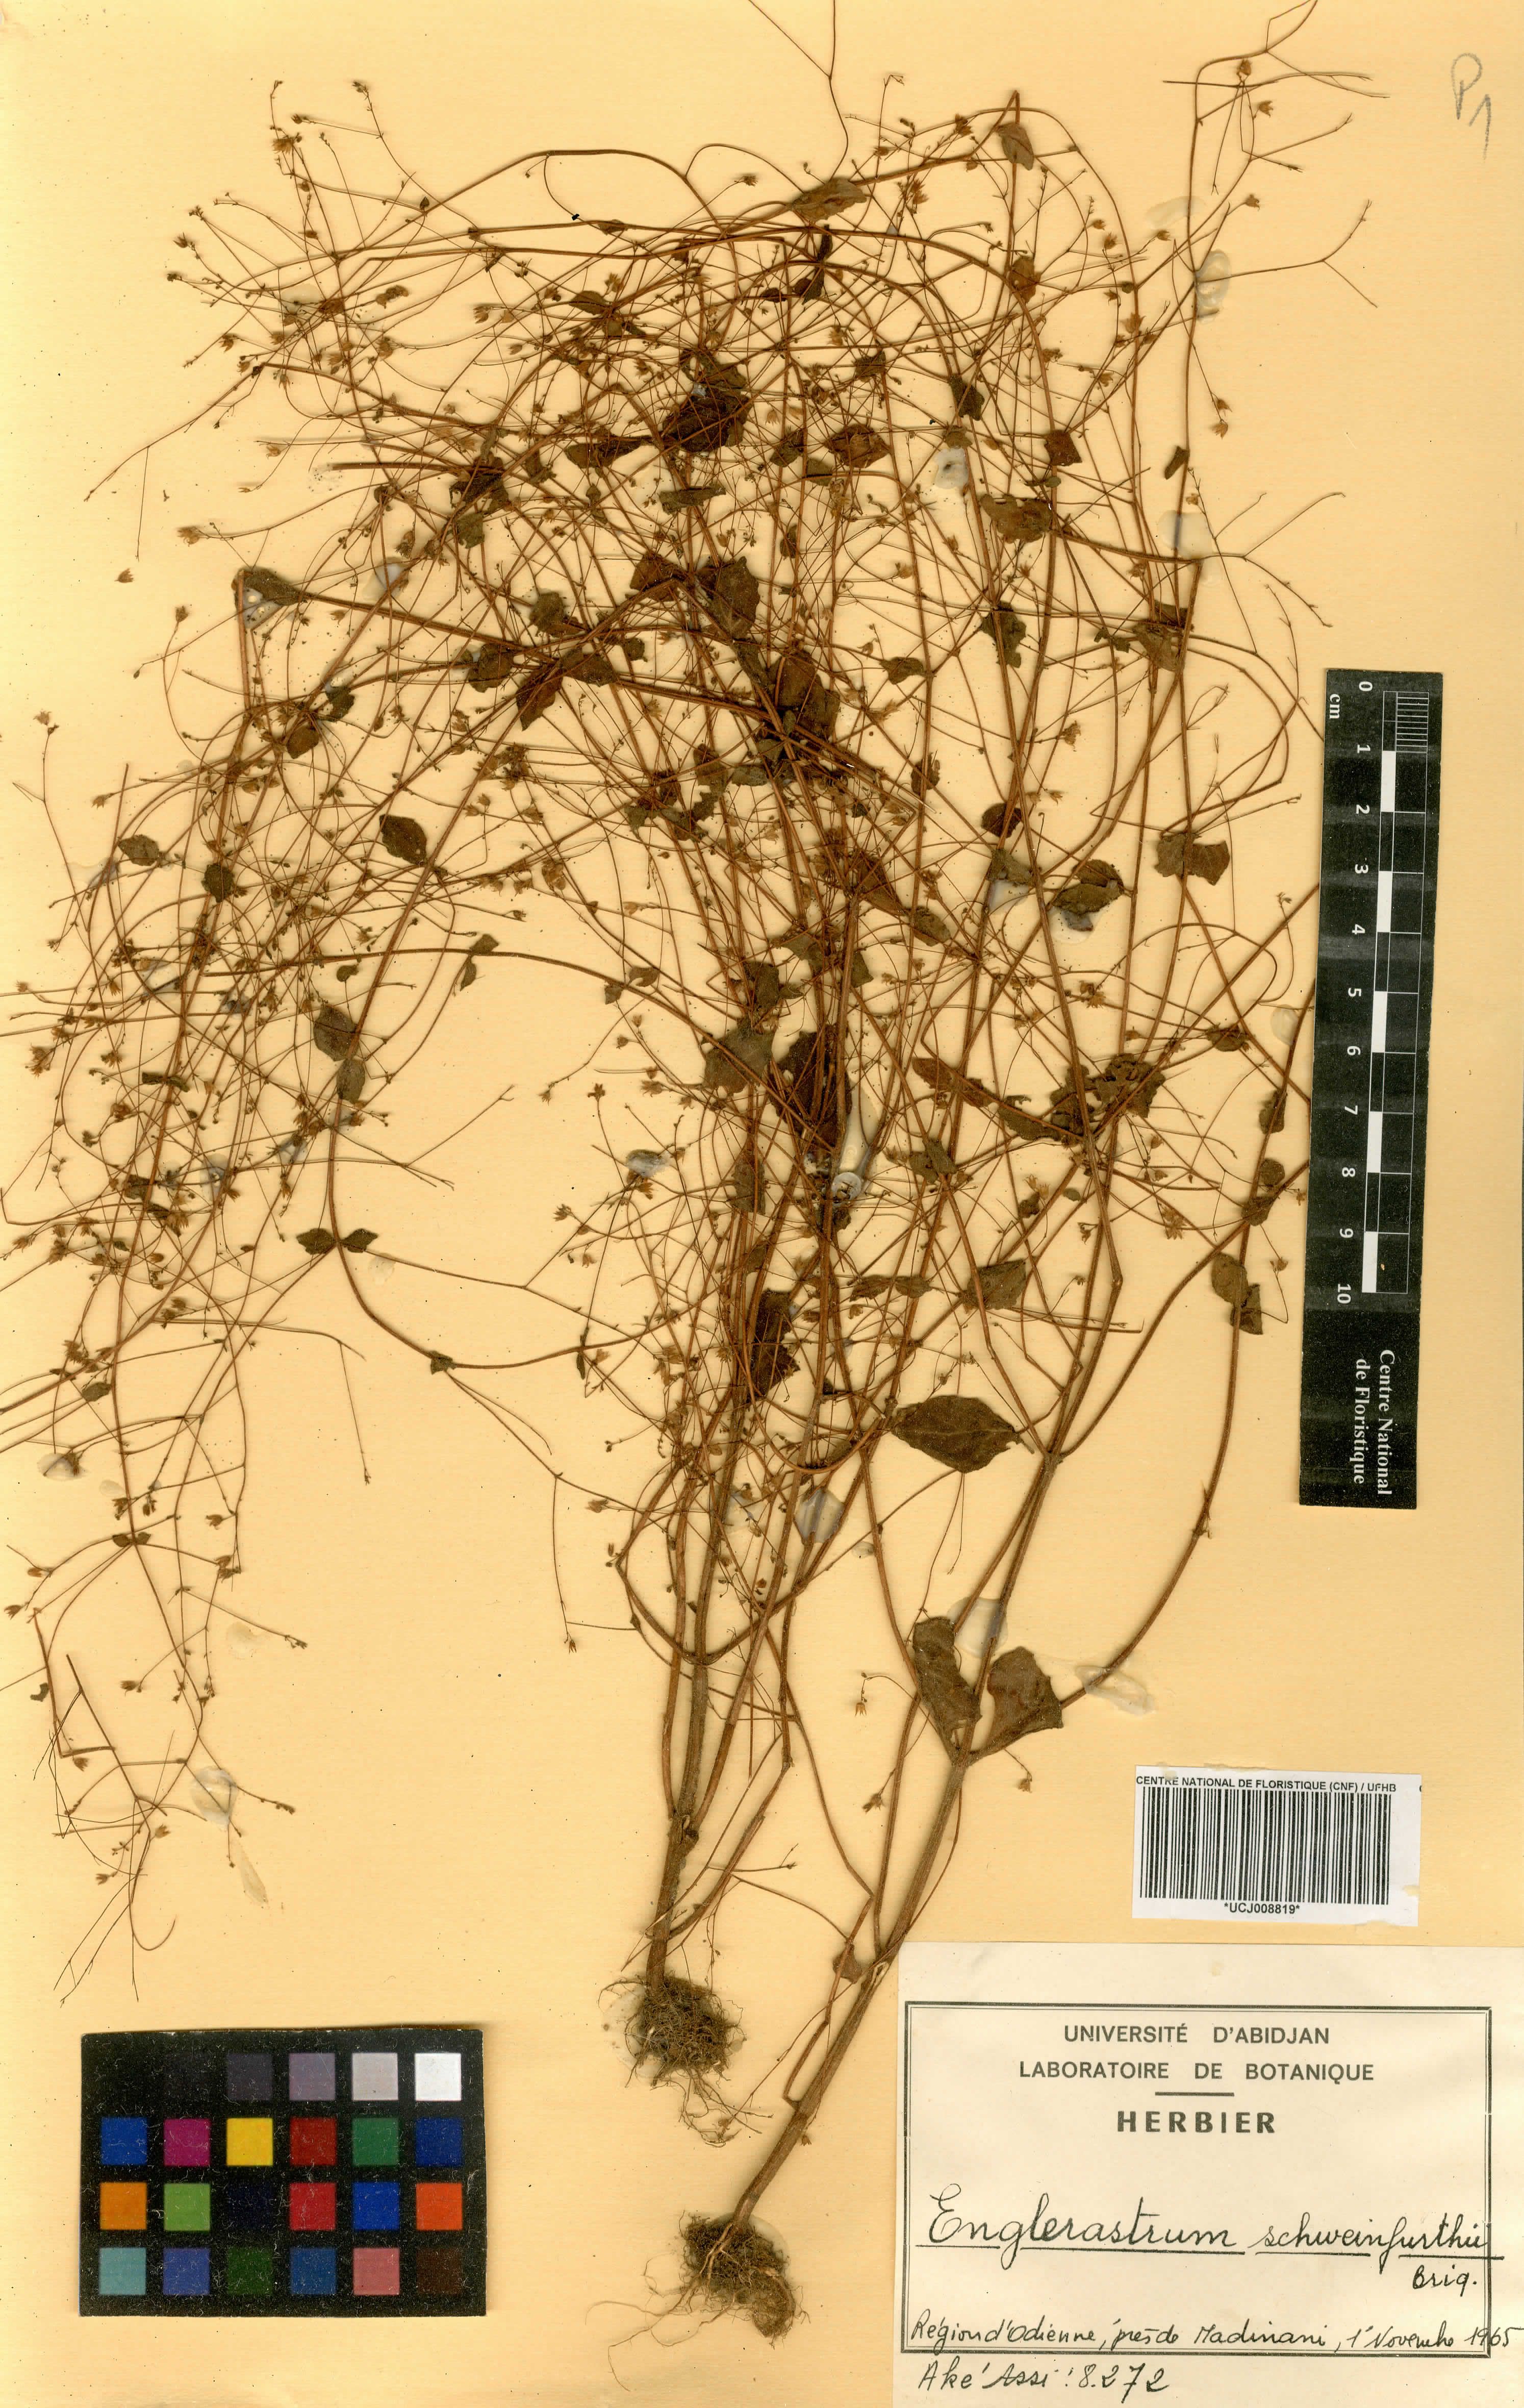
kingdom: Plantae
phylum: Tracheophyta
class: Magnoliopsida
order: Lamiales
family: Lamiaceae
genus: Coleus
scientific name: Coleus rhodesianum
